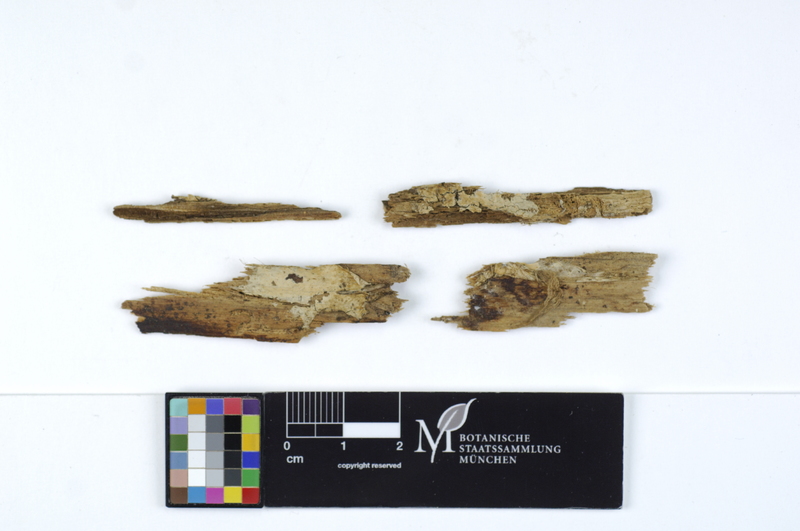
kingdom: Fungi
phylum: Basidiomycota
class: Agaricomycetes
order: Boletales
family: Coniophoraceae
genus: Coniophora
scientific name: Coniophora fusispora
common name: Spindle duster
